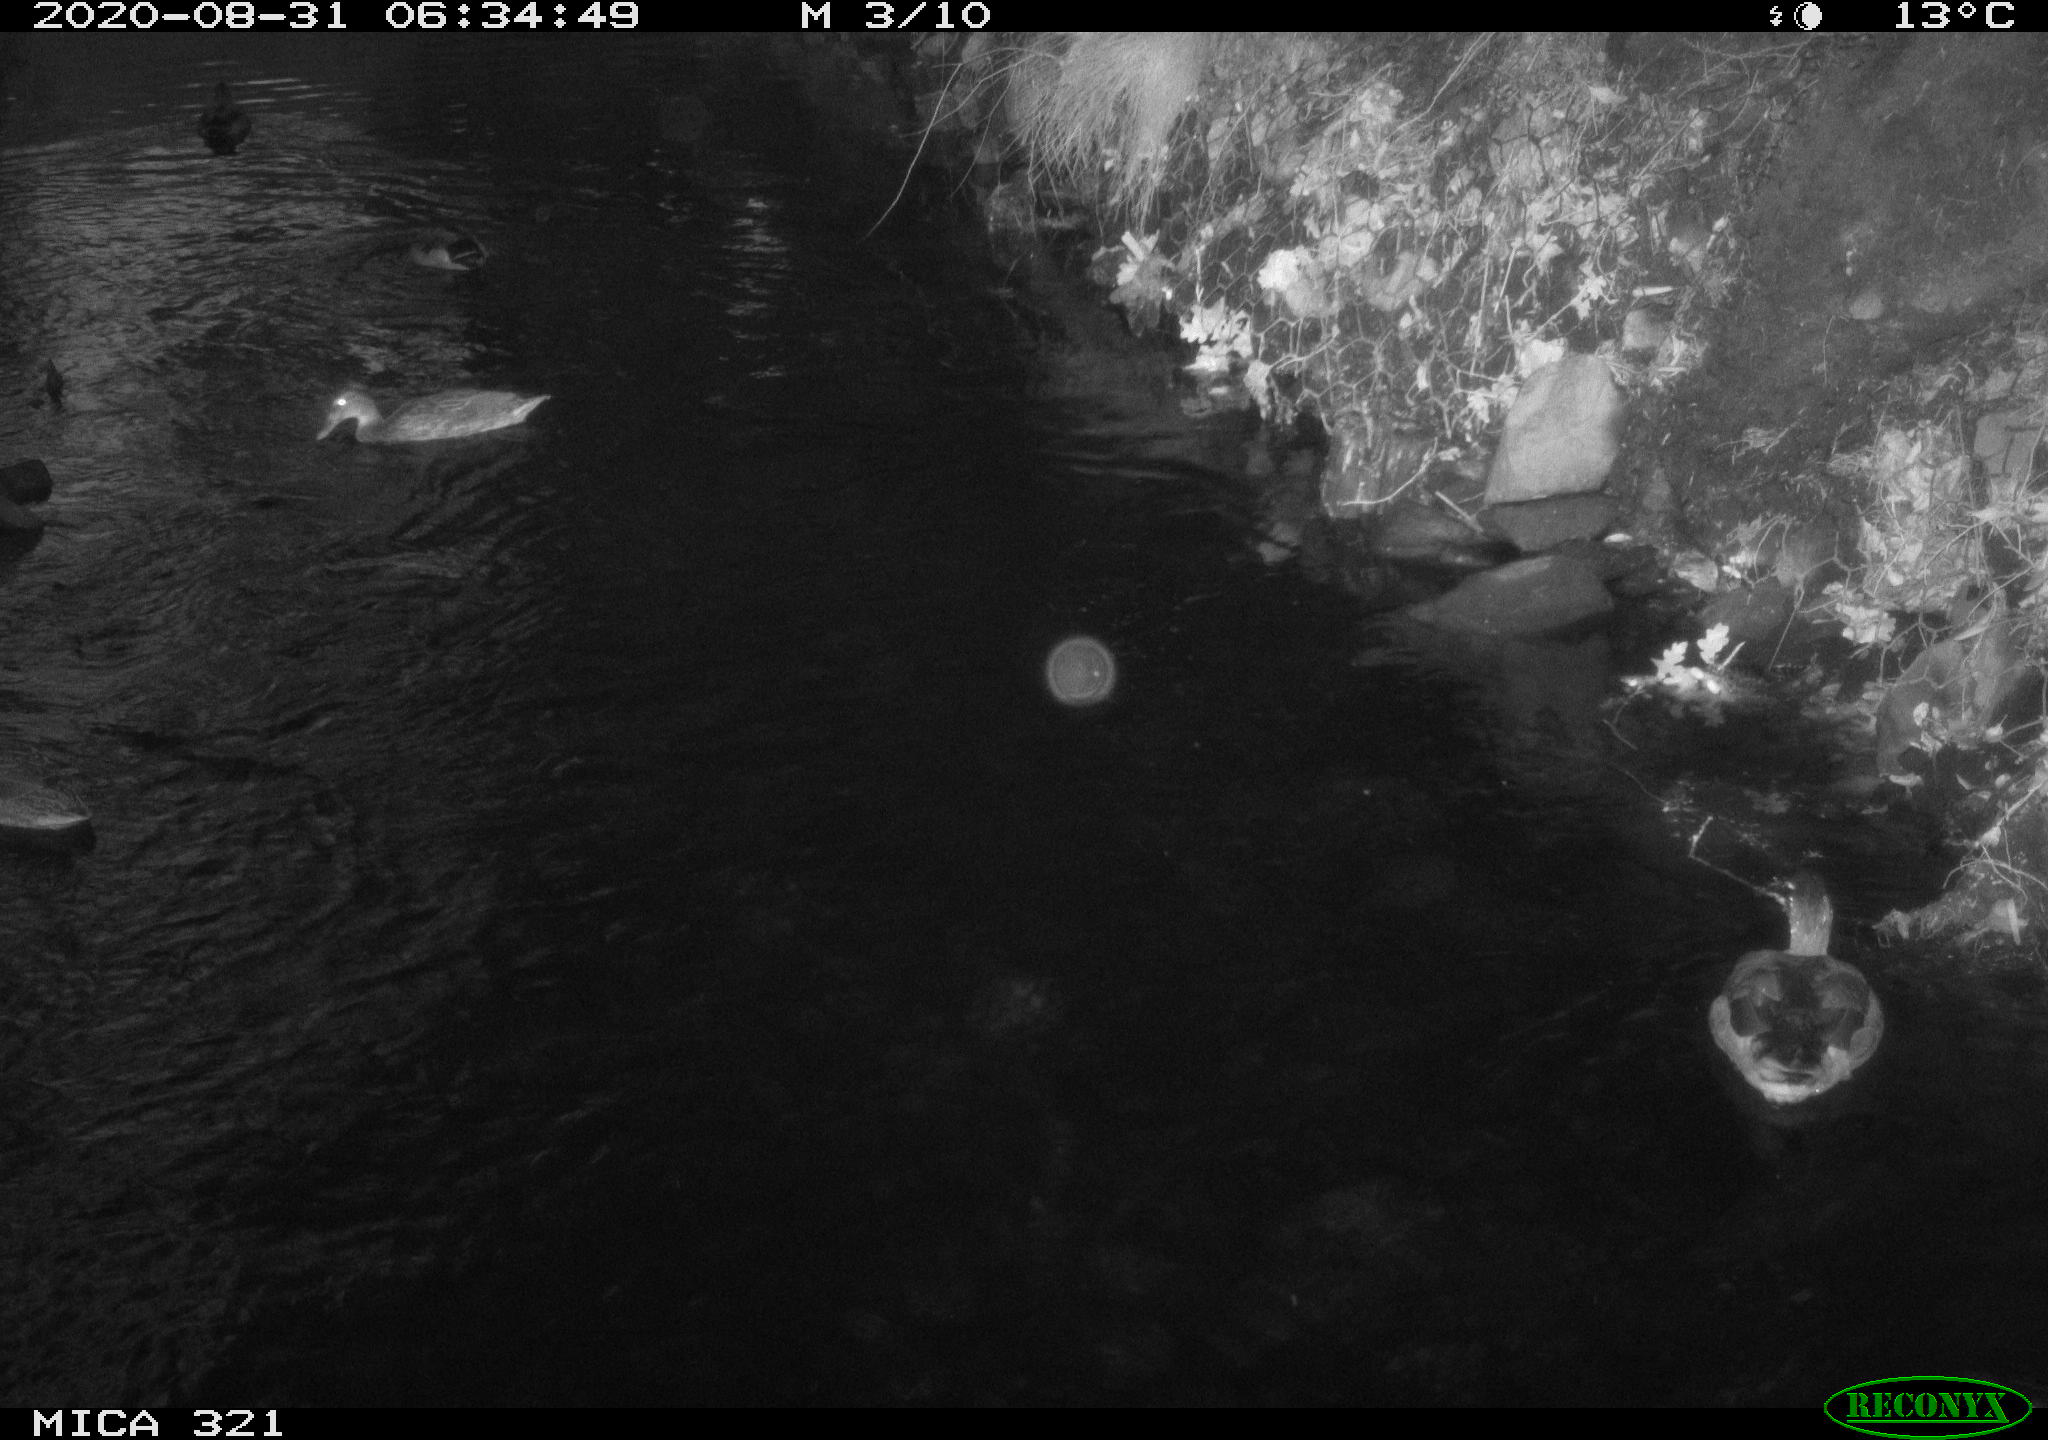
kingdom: Animalia
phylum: Chordata
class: Aves
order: Anseriformes
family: Anatidae
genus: Anas
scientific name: Anas platyrhynchos
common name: Mallard
